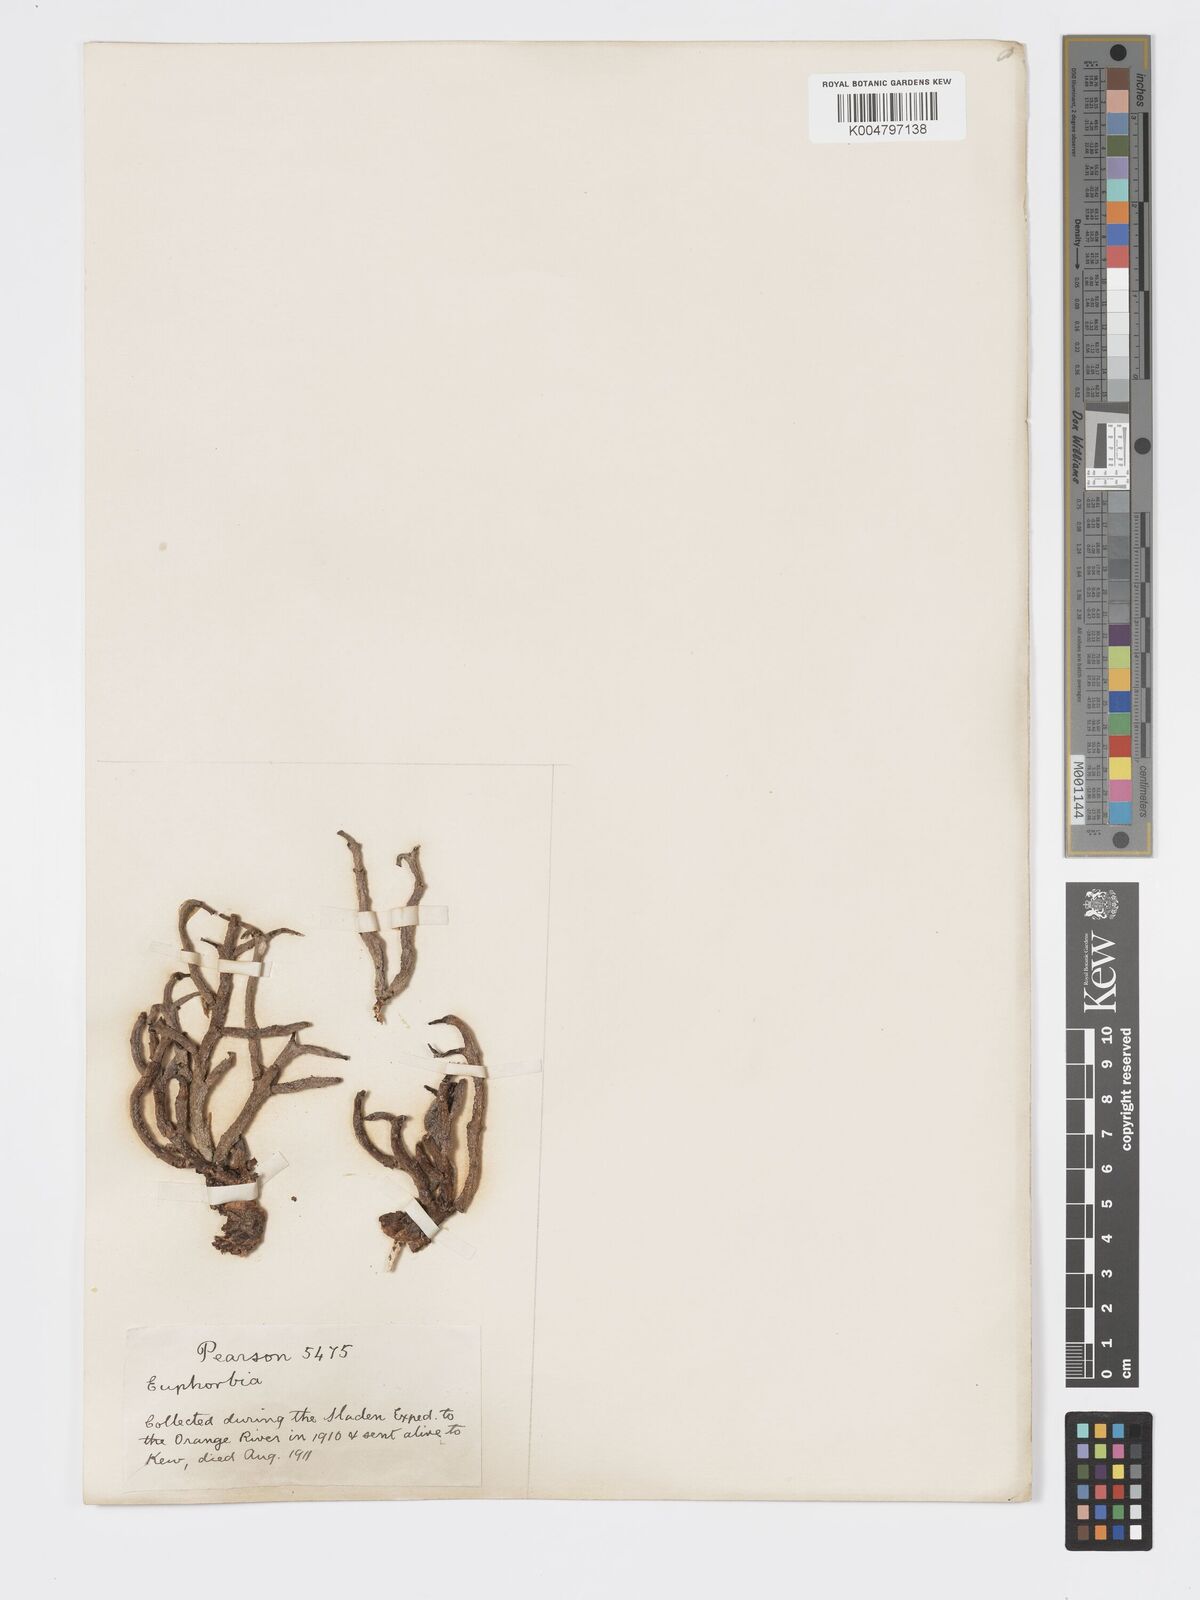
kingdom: Plantae
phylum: Tracheophyta
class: Magnoliopsida
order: Malpighiales
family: Euphorbiaceae
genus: Euphorbia
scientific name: Euphorbia
